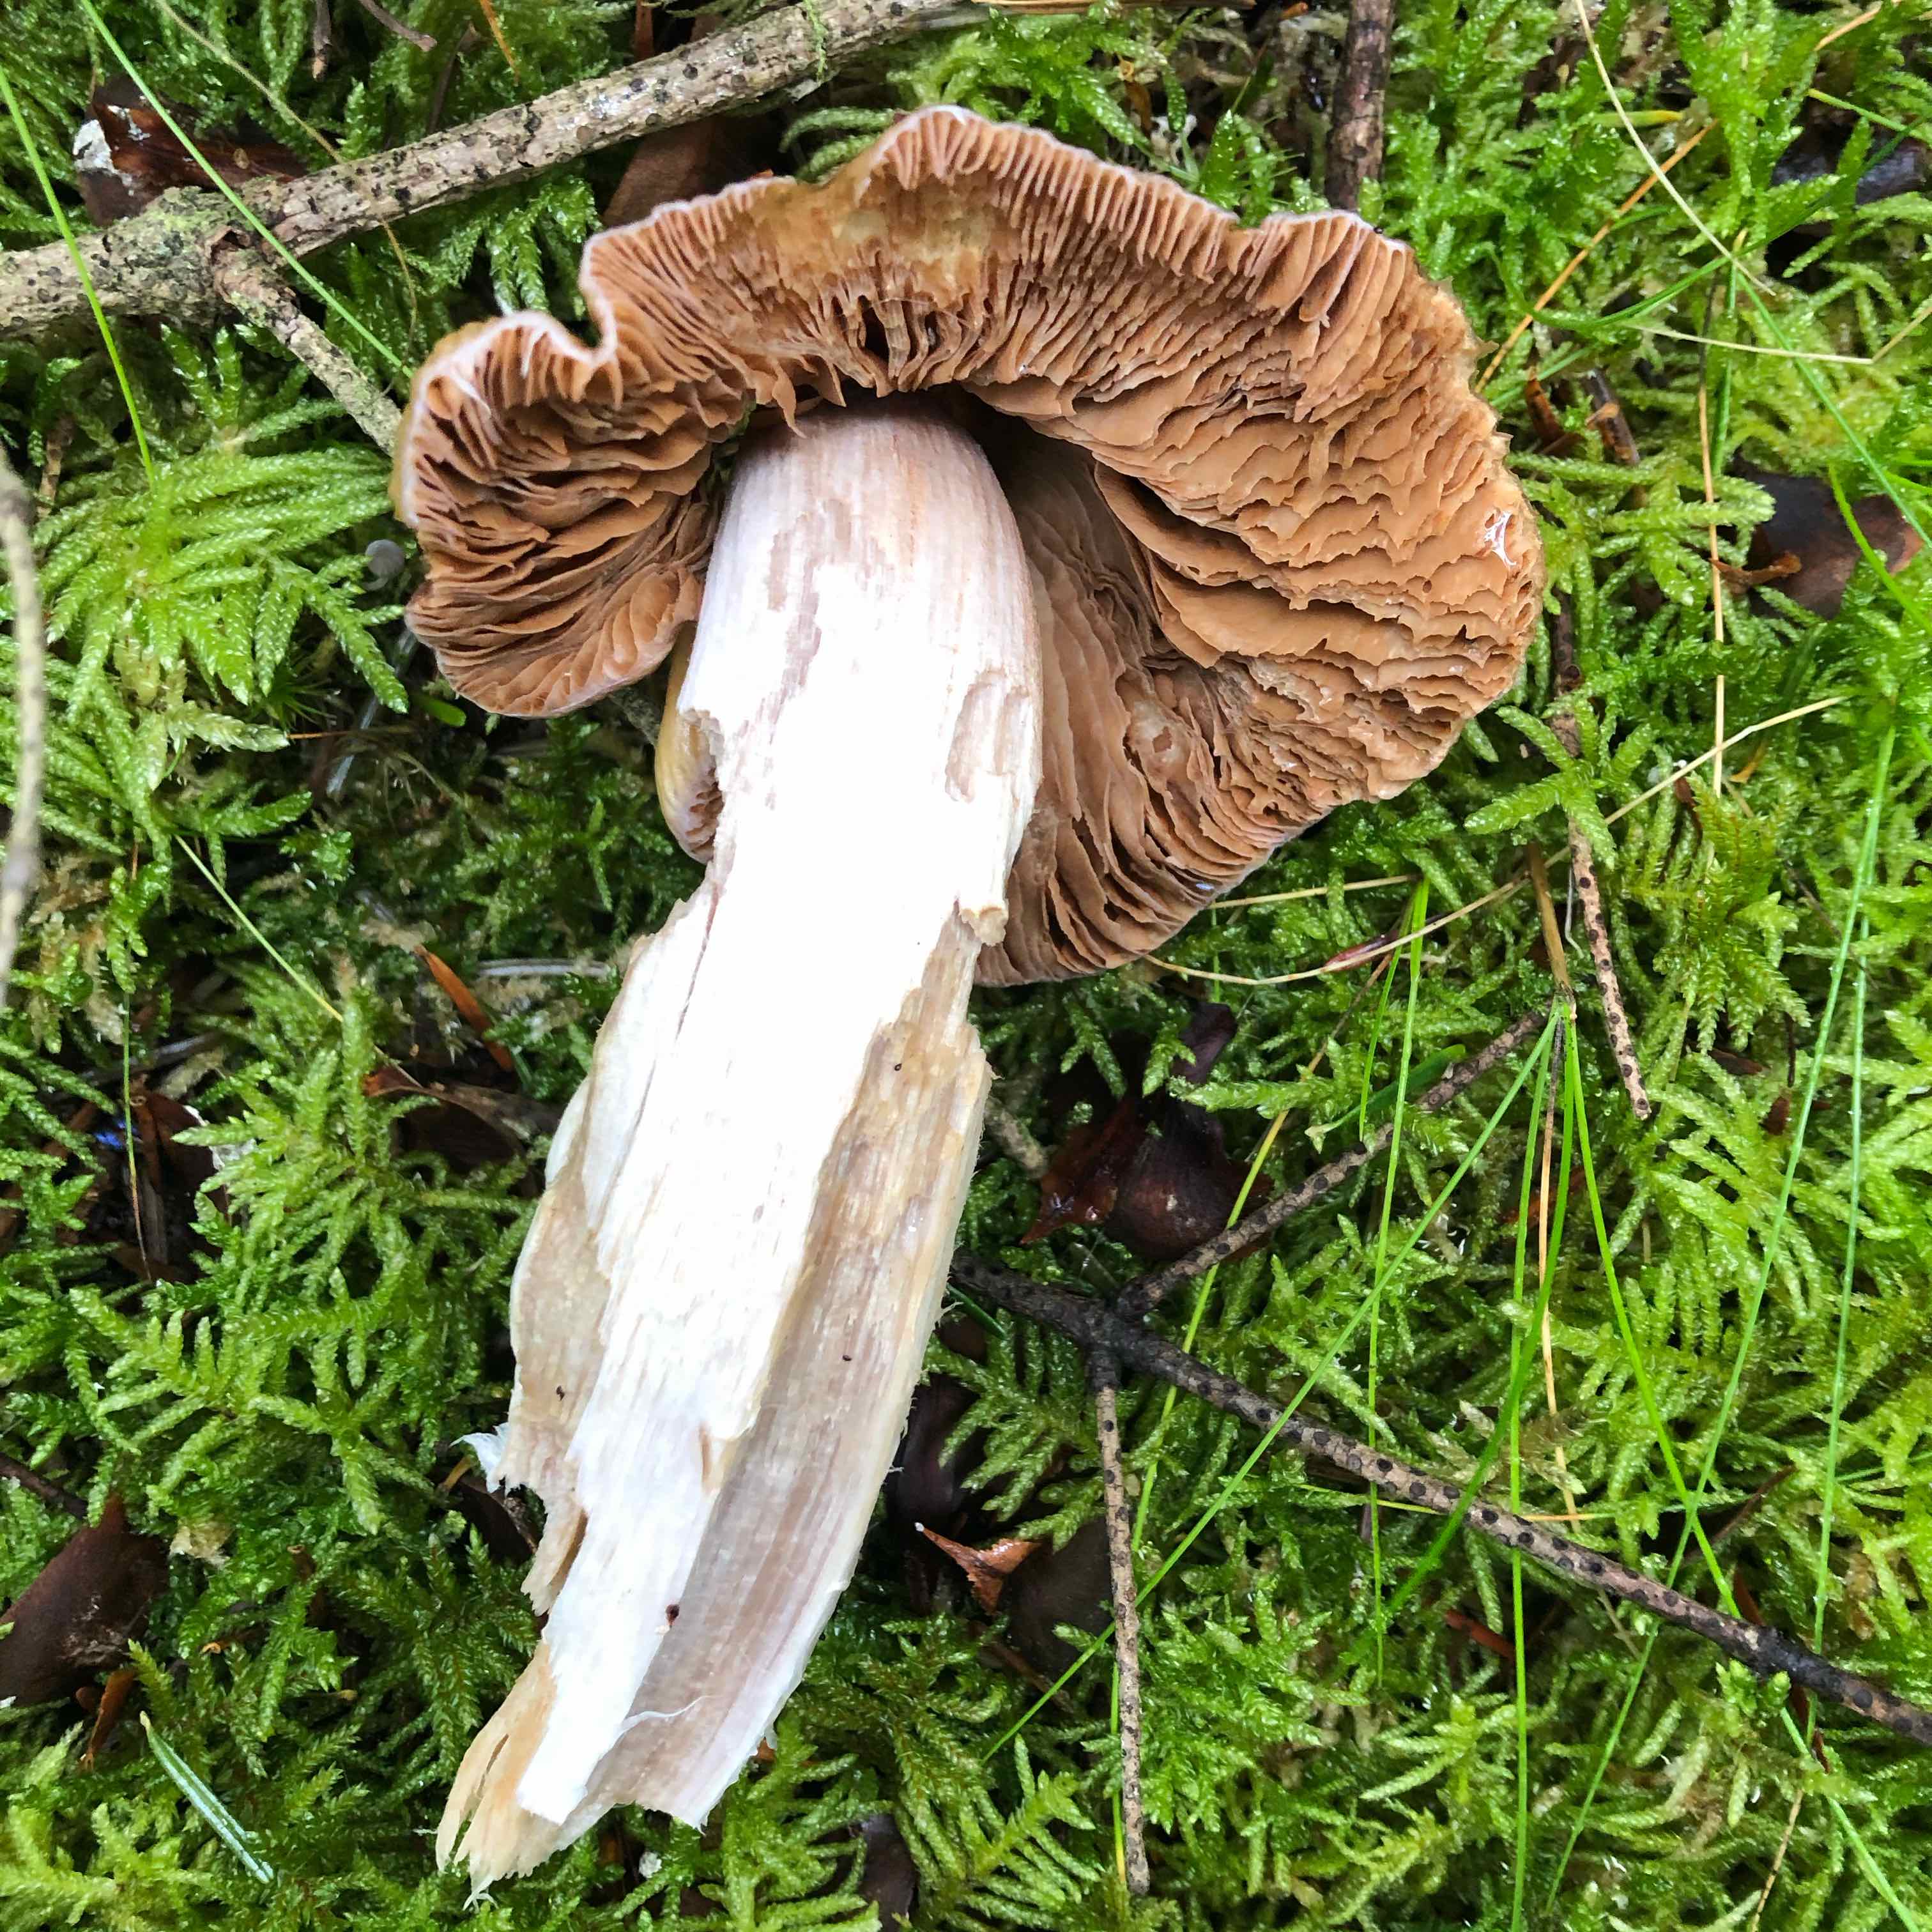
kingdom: Fungi
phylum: Basidiomycota
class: Agaricomycetes
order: Agaricales
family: Cortinariaceae
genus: Cortinarius
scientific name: Cortinarius elatior
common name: høj slørhat
